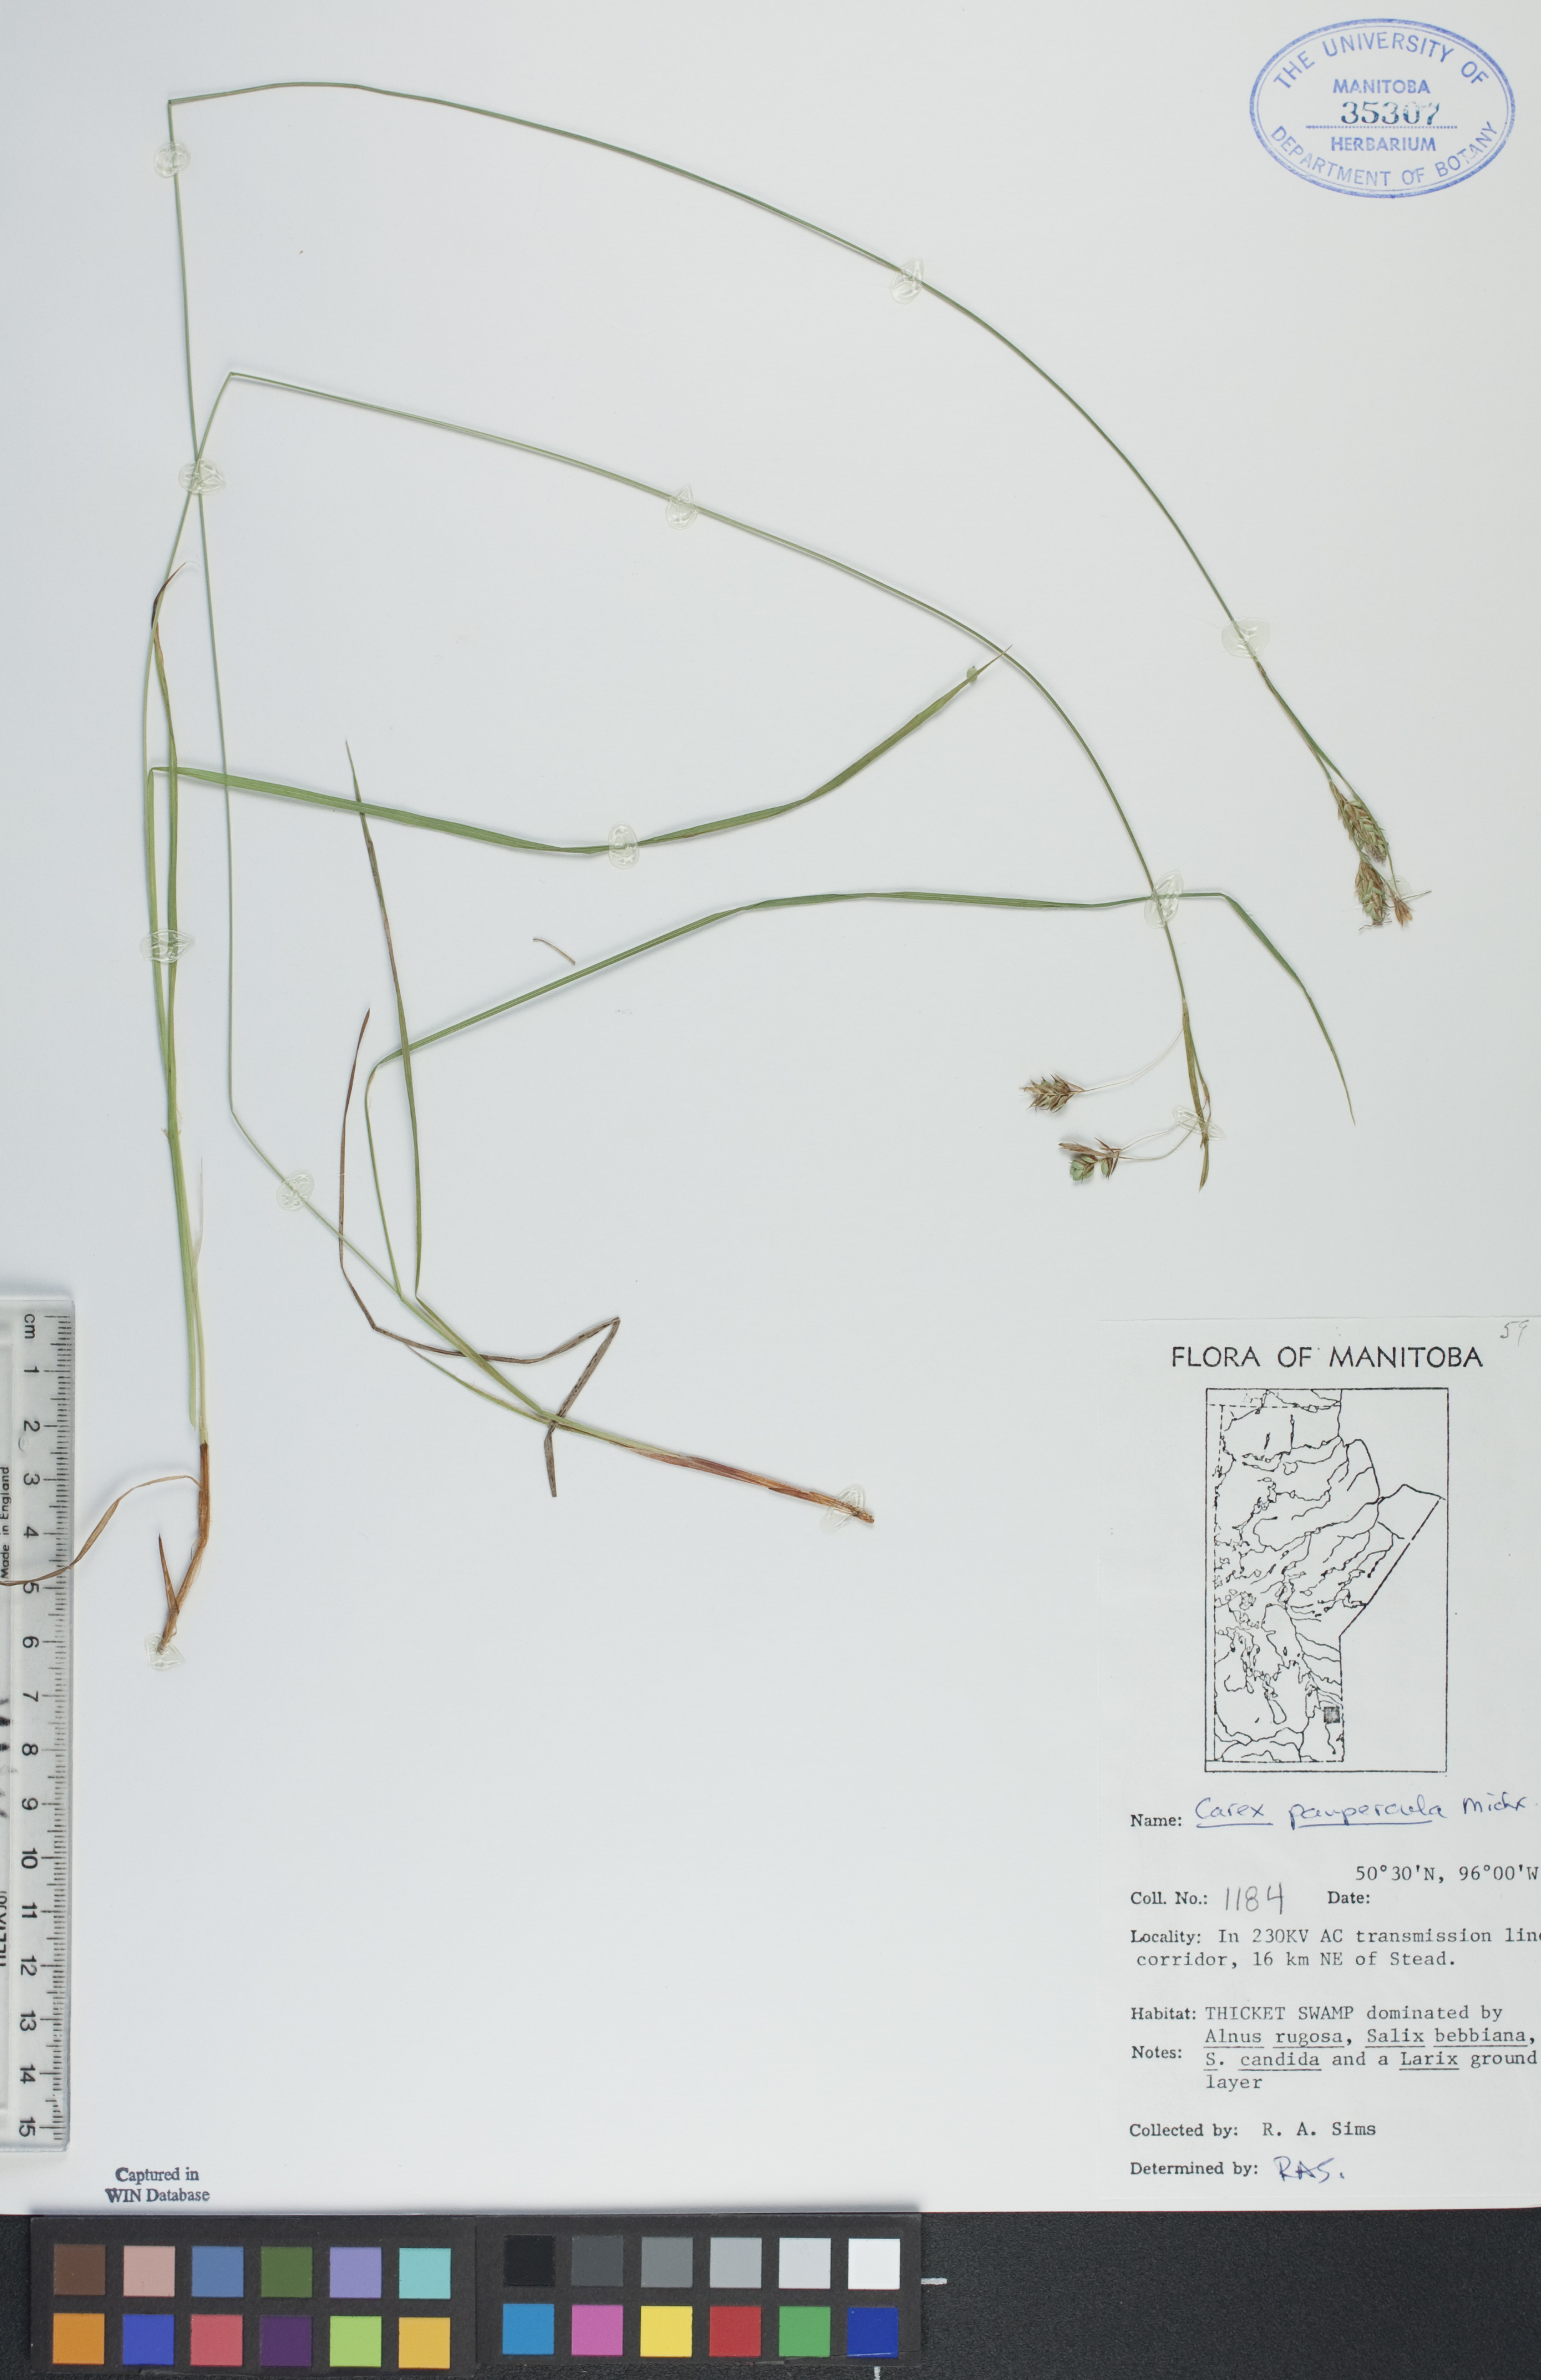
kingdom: Plantae
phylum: Tracheophyta
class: Liliopsida
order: Poales
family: Cyperaceae
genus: Carex
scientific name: Carex magellanica
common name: Bog sedge
